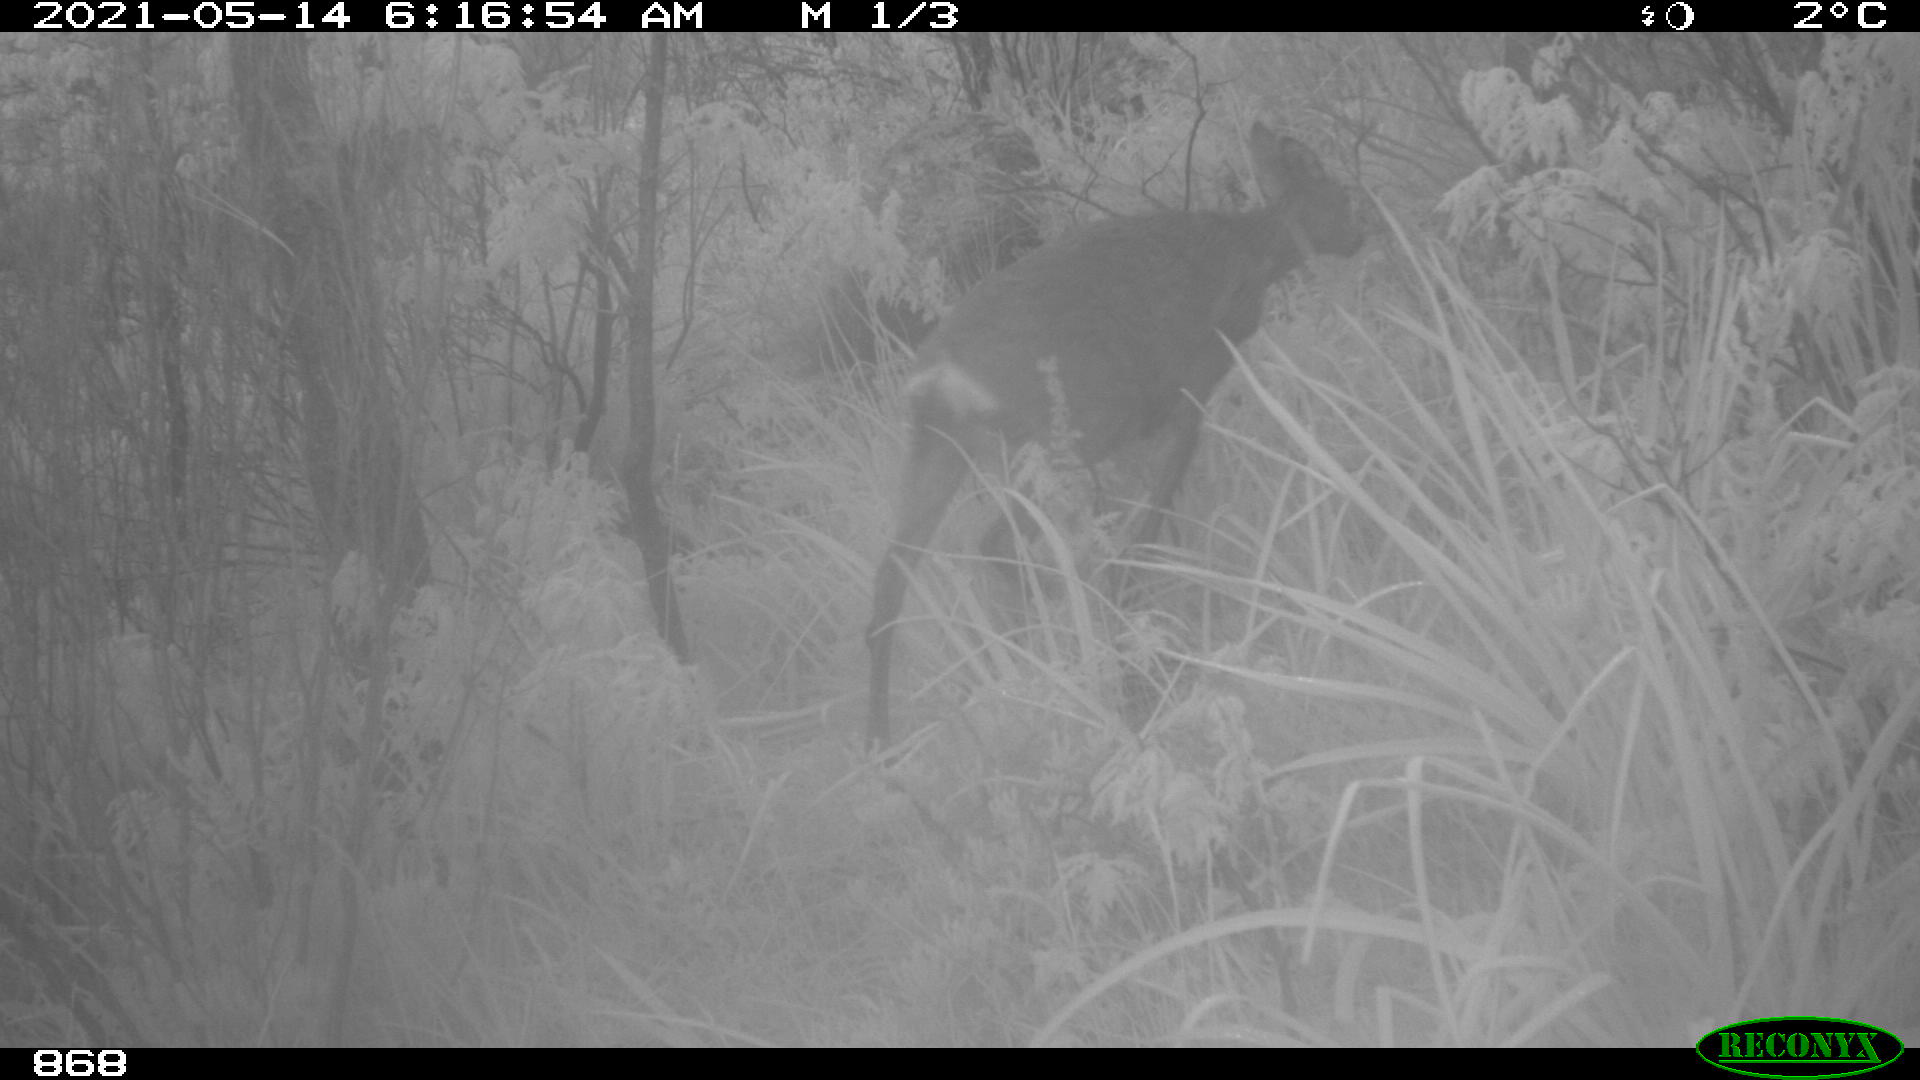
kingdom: Animalia
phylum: Chordata
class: Mammalia
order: Artiodactyla
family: Cervidae
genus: Capreolus
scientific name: Capreolus capreolus
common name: Western roe deer
